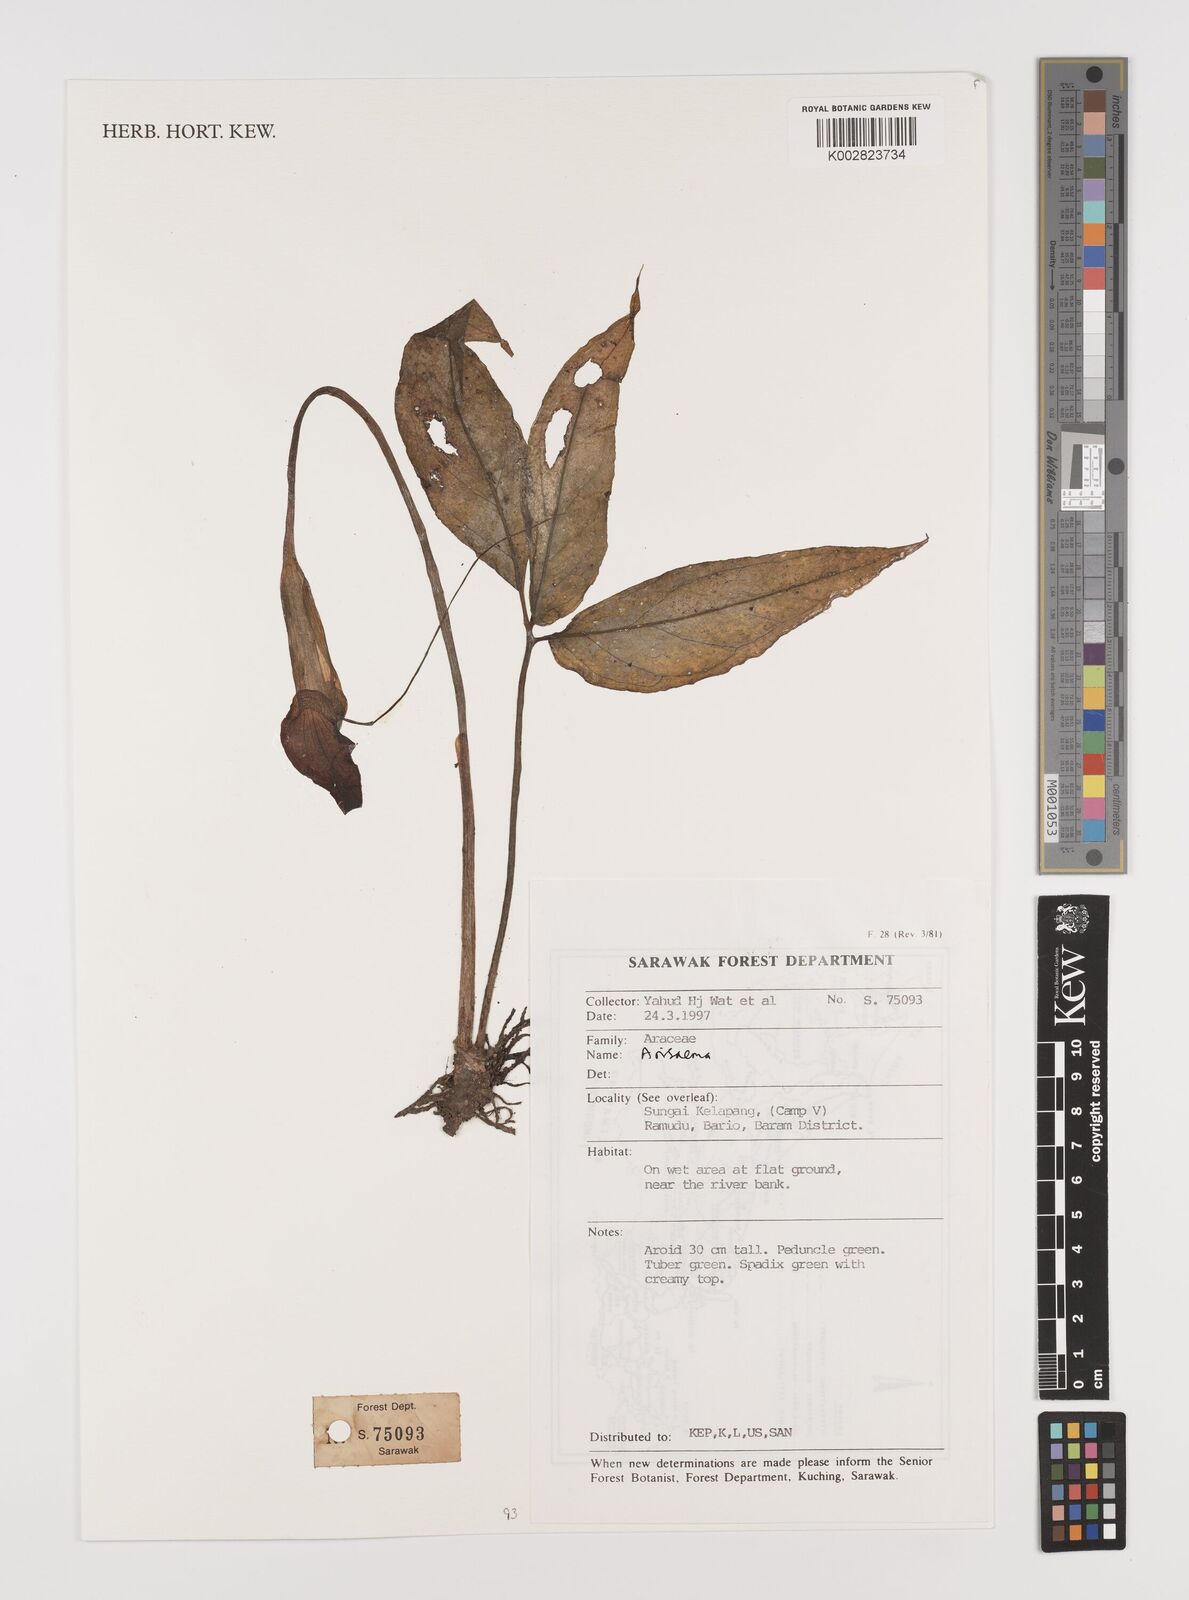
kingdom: Plantae
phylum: Tracheophyta
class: Liliopsida
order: Alismatales
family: Araceae
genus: Arisaema
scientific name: Arisaema
